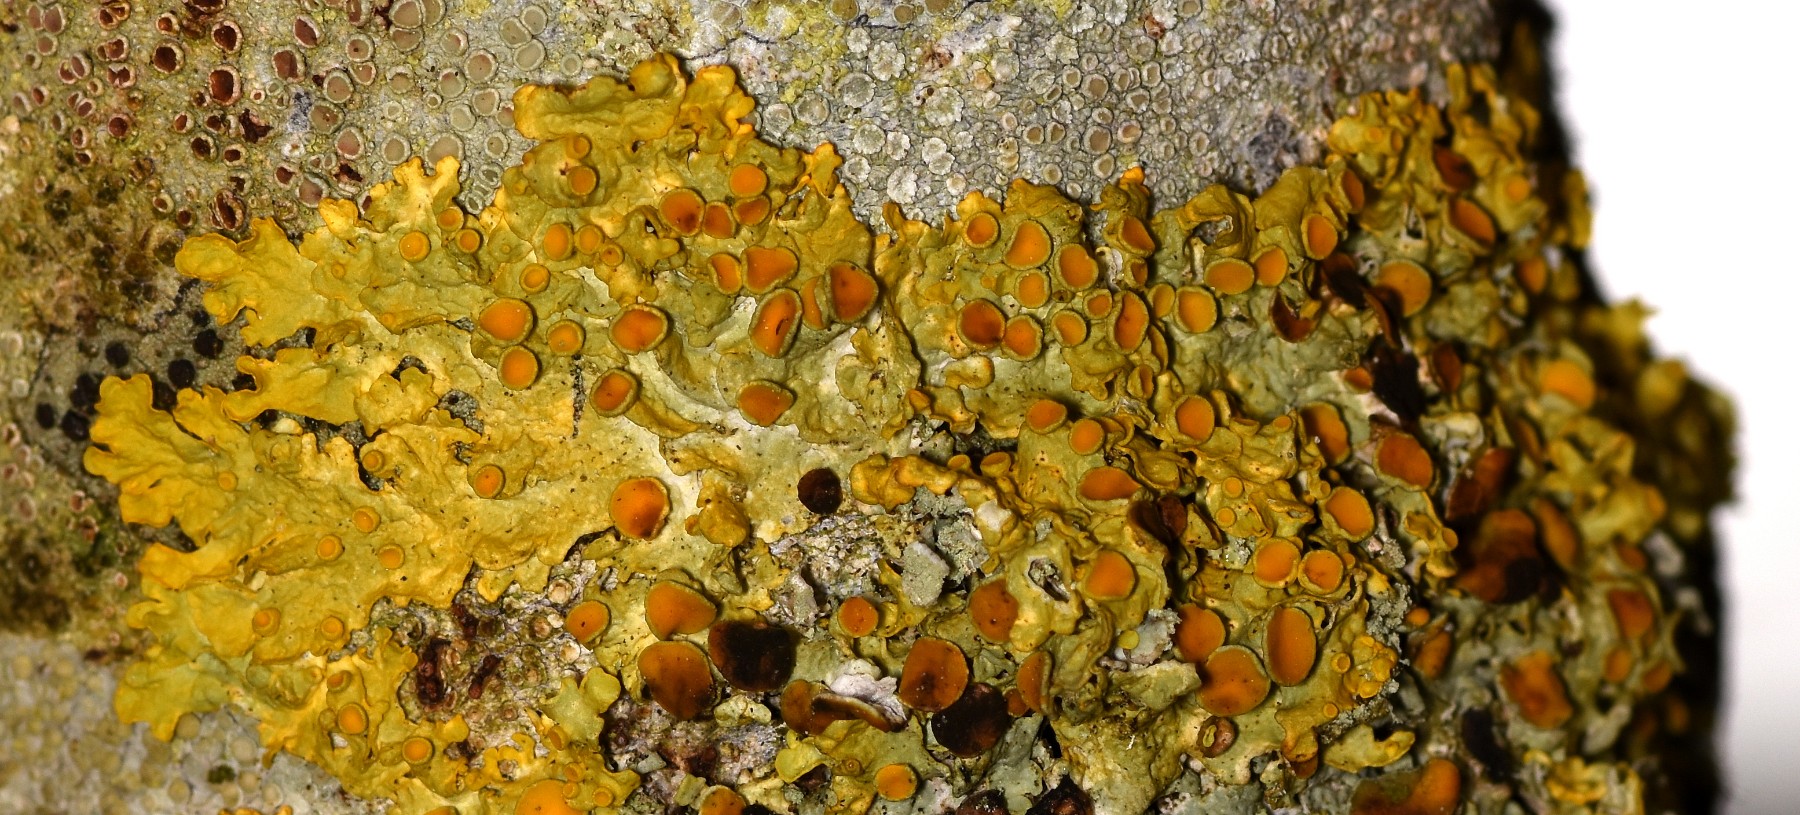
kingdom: Fungi
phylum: Ascomycota
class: Lecanoromycetes
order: Teloschistales
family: Teloschistaceae
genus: Xanthoria
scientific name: Xanthoria parietina
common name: almindelig væggelav
